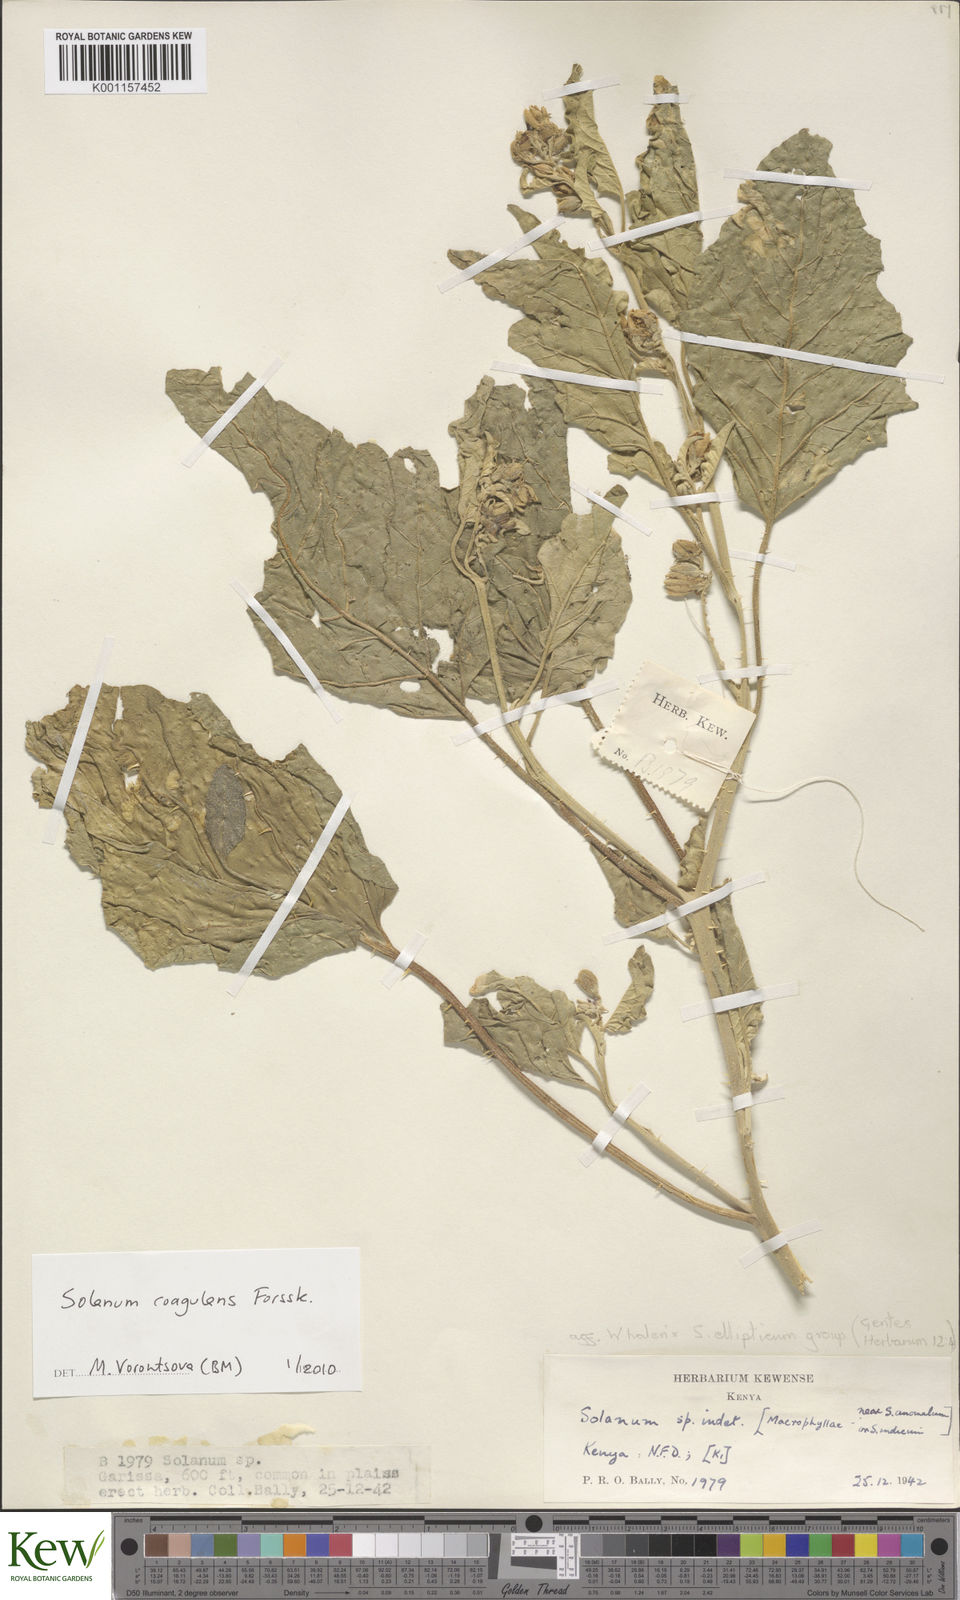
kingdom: Plantae
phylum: Tracheophyta
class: Magnoliopsida
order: Solanales
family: Solanaceae
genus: Solanum
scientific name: Solanum coagulans
